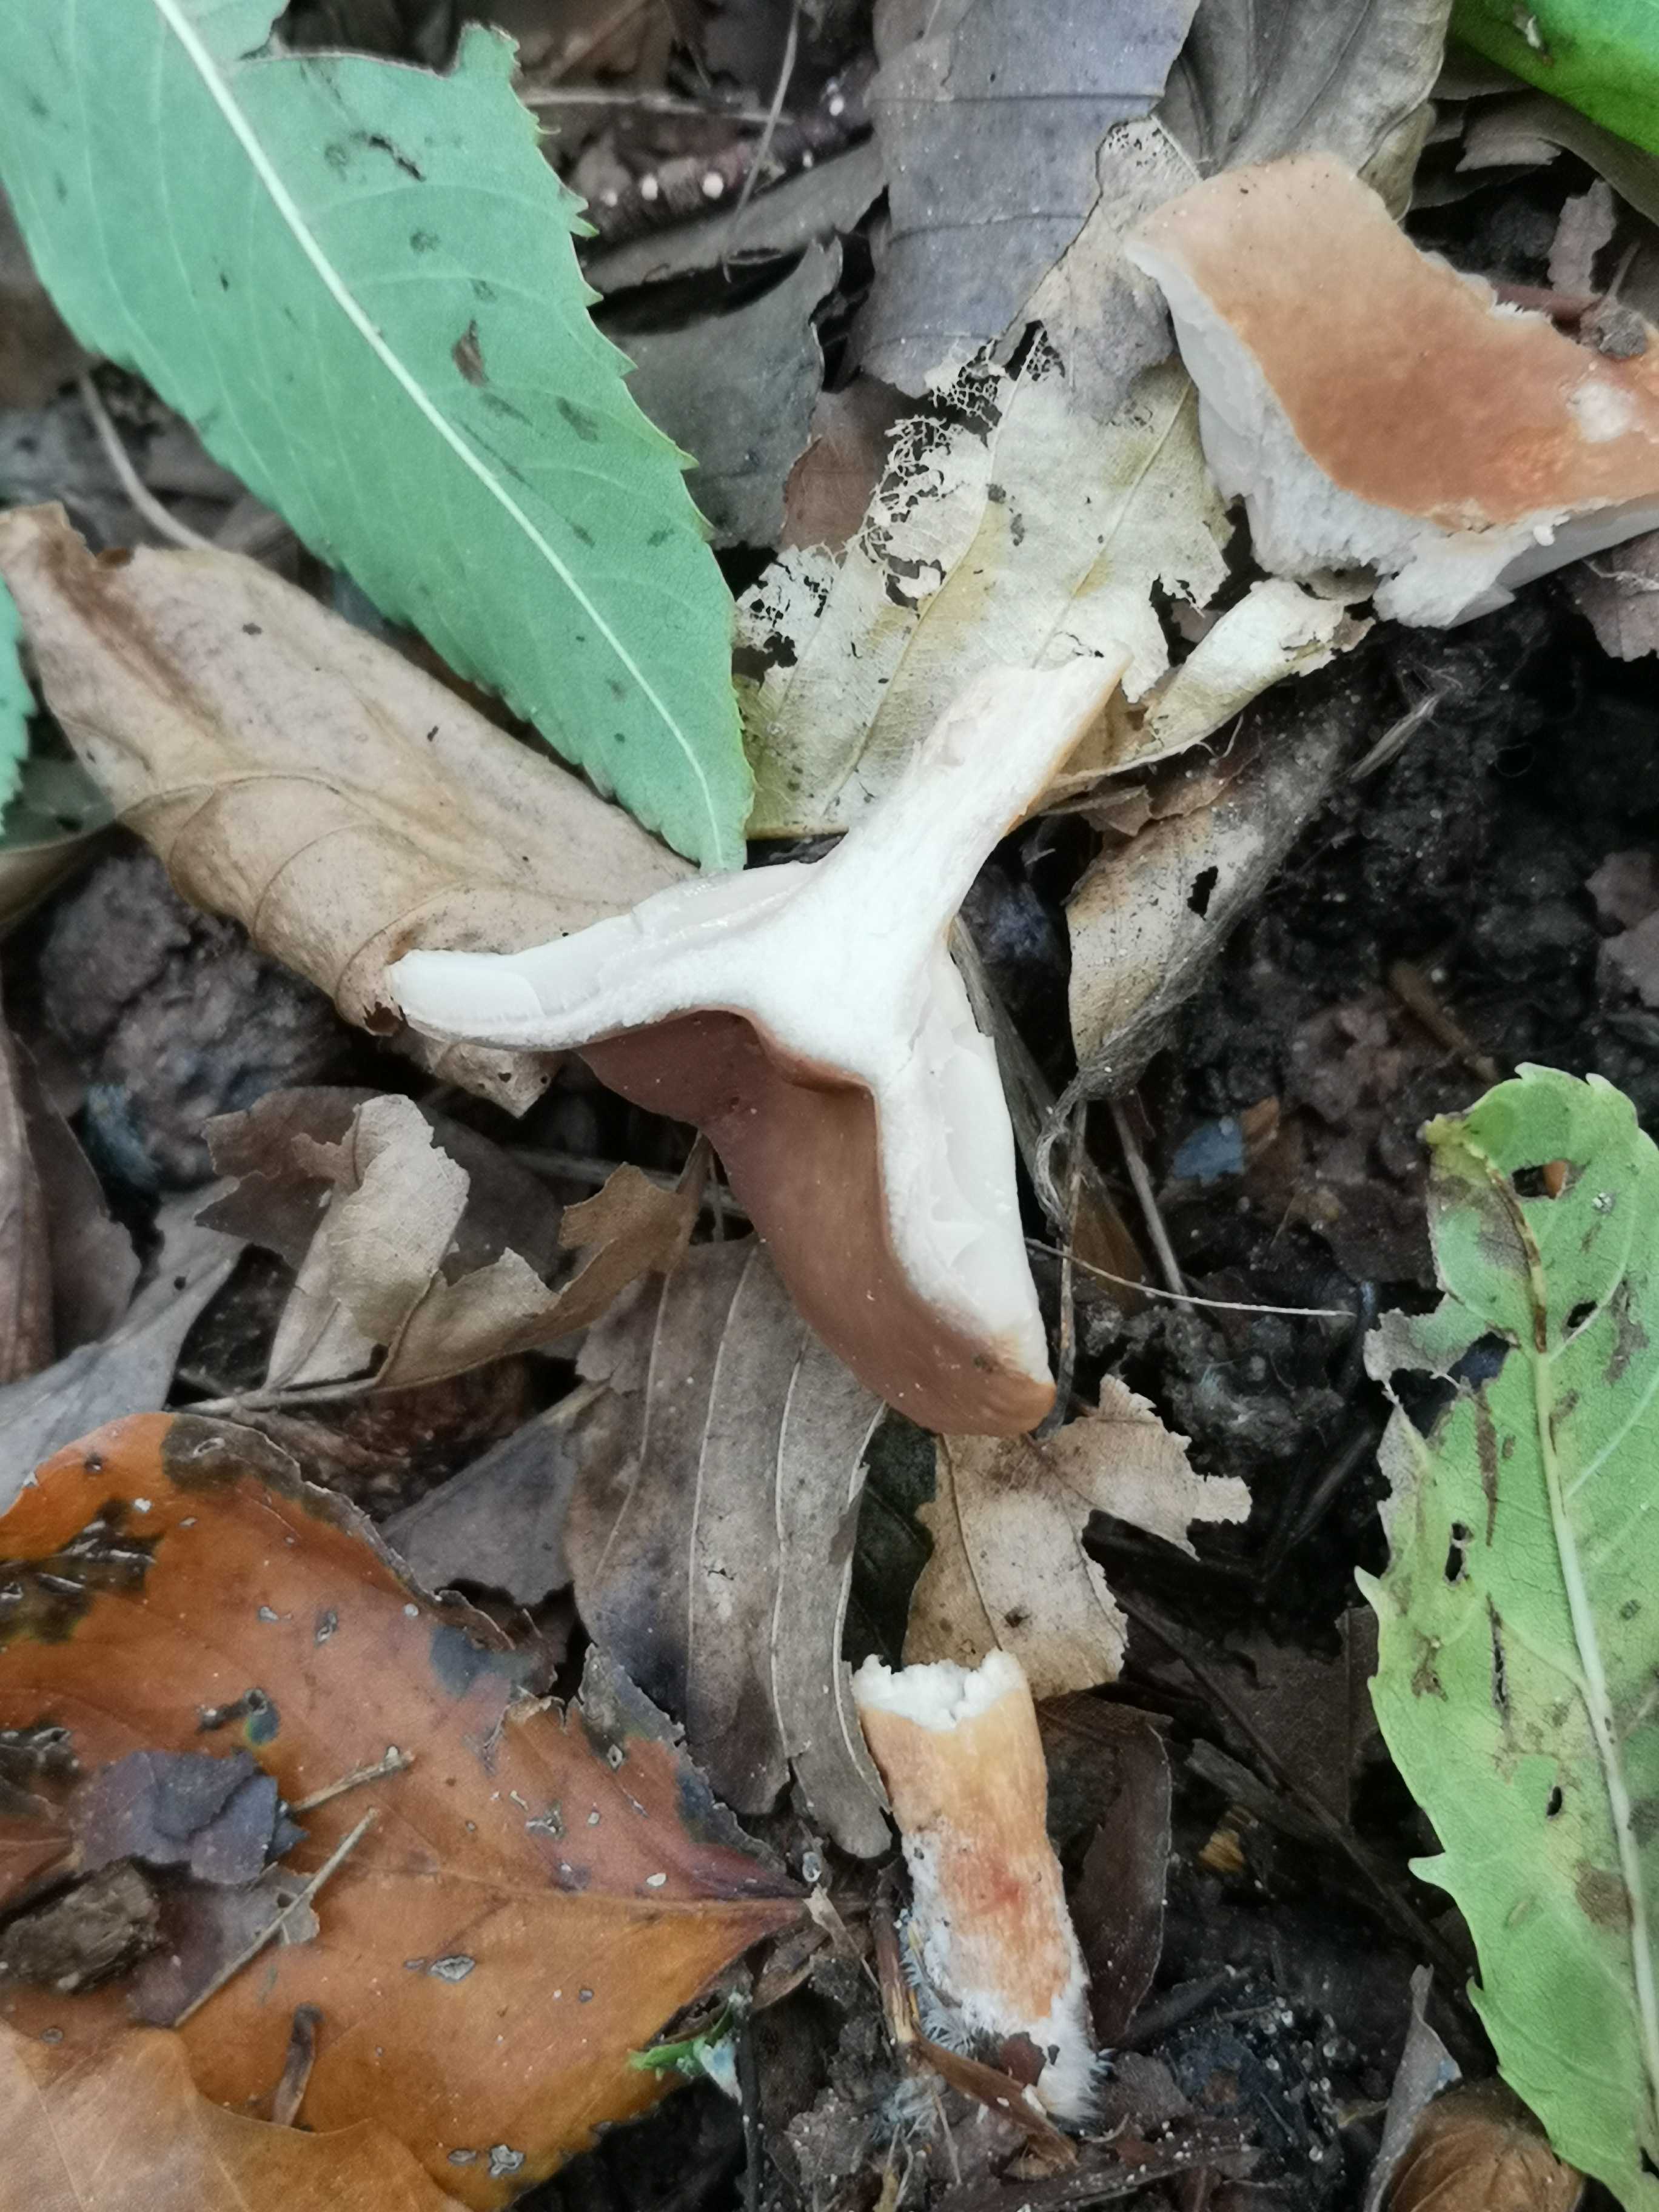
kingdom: Fungi
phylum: Basidiomycota
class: Agaricomycetes
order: Russulales
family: Russulaceae
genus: Lactarius
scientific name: Lactarius subdulcis
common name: sødlig mælkehat
